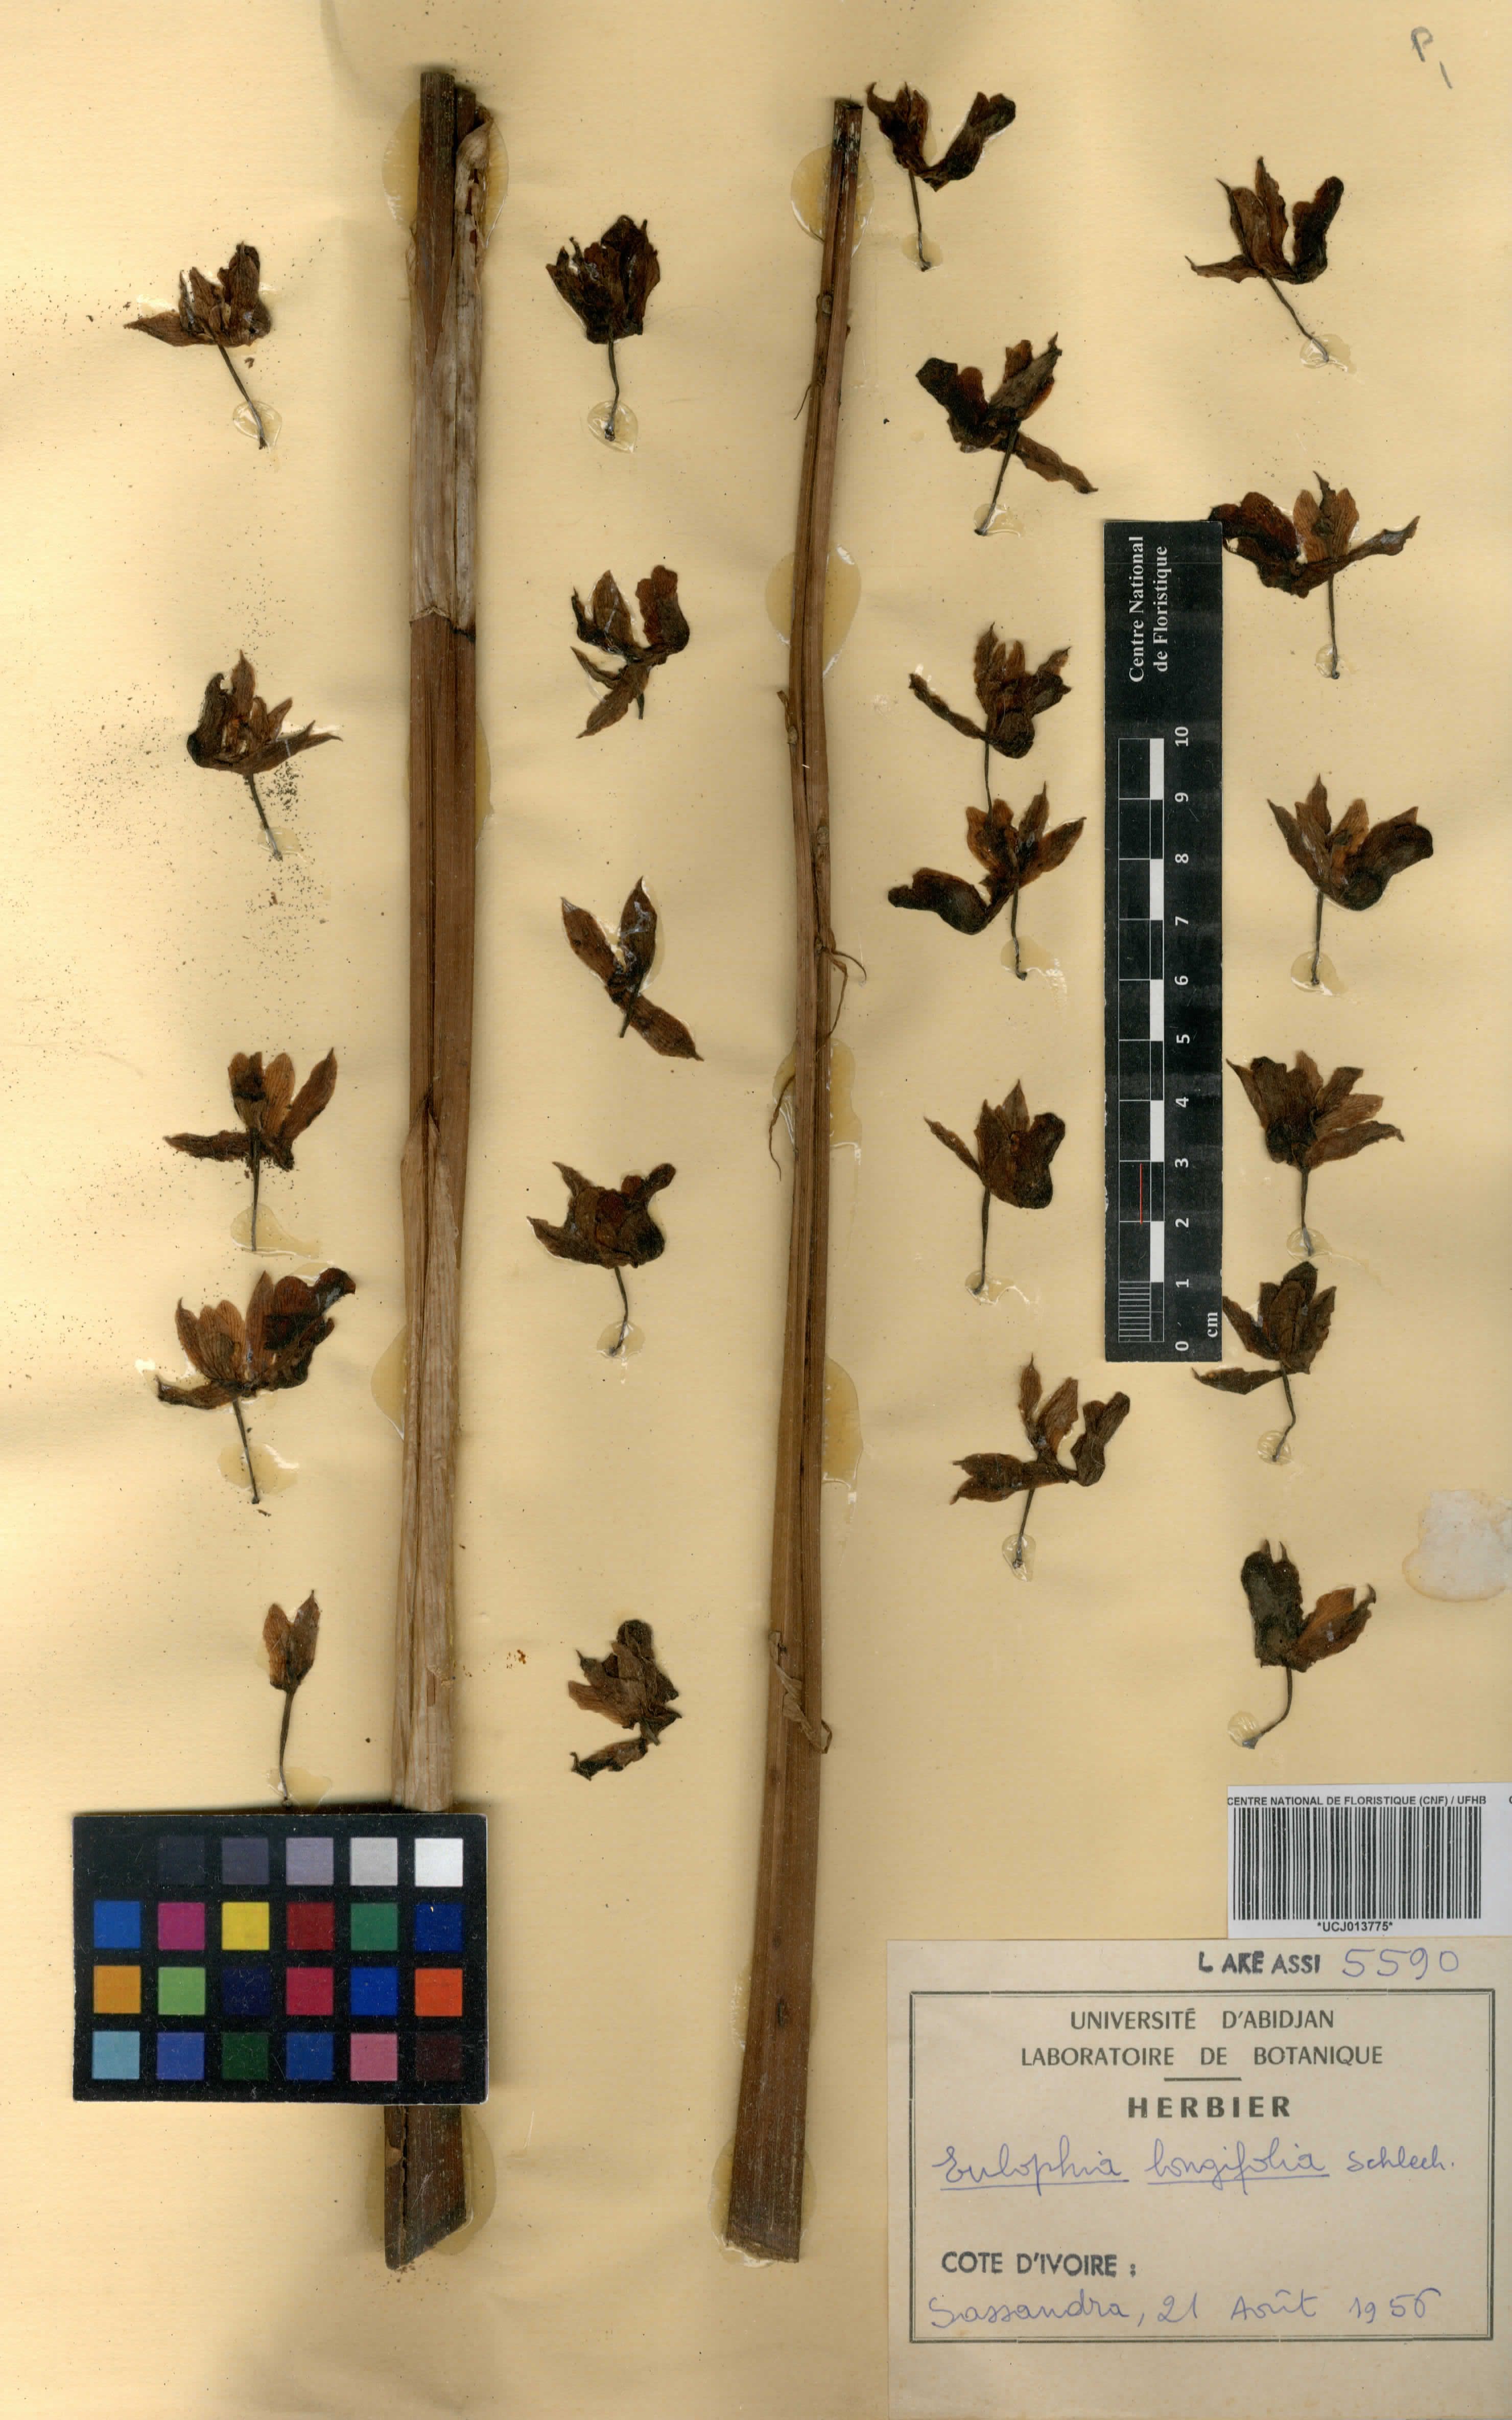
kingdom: Plantae
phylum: Tracheophyta
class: Liliopsida
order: Asparagales
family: Orchidaceae
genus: Eulophia
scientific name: Eulophia angolensis
